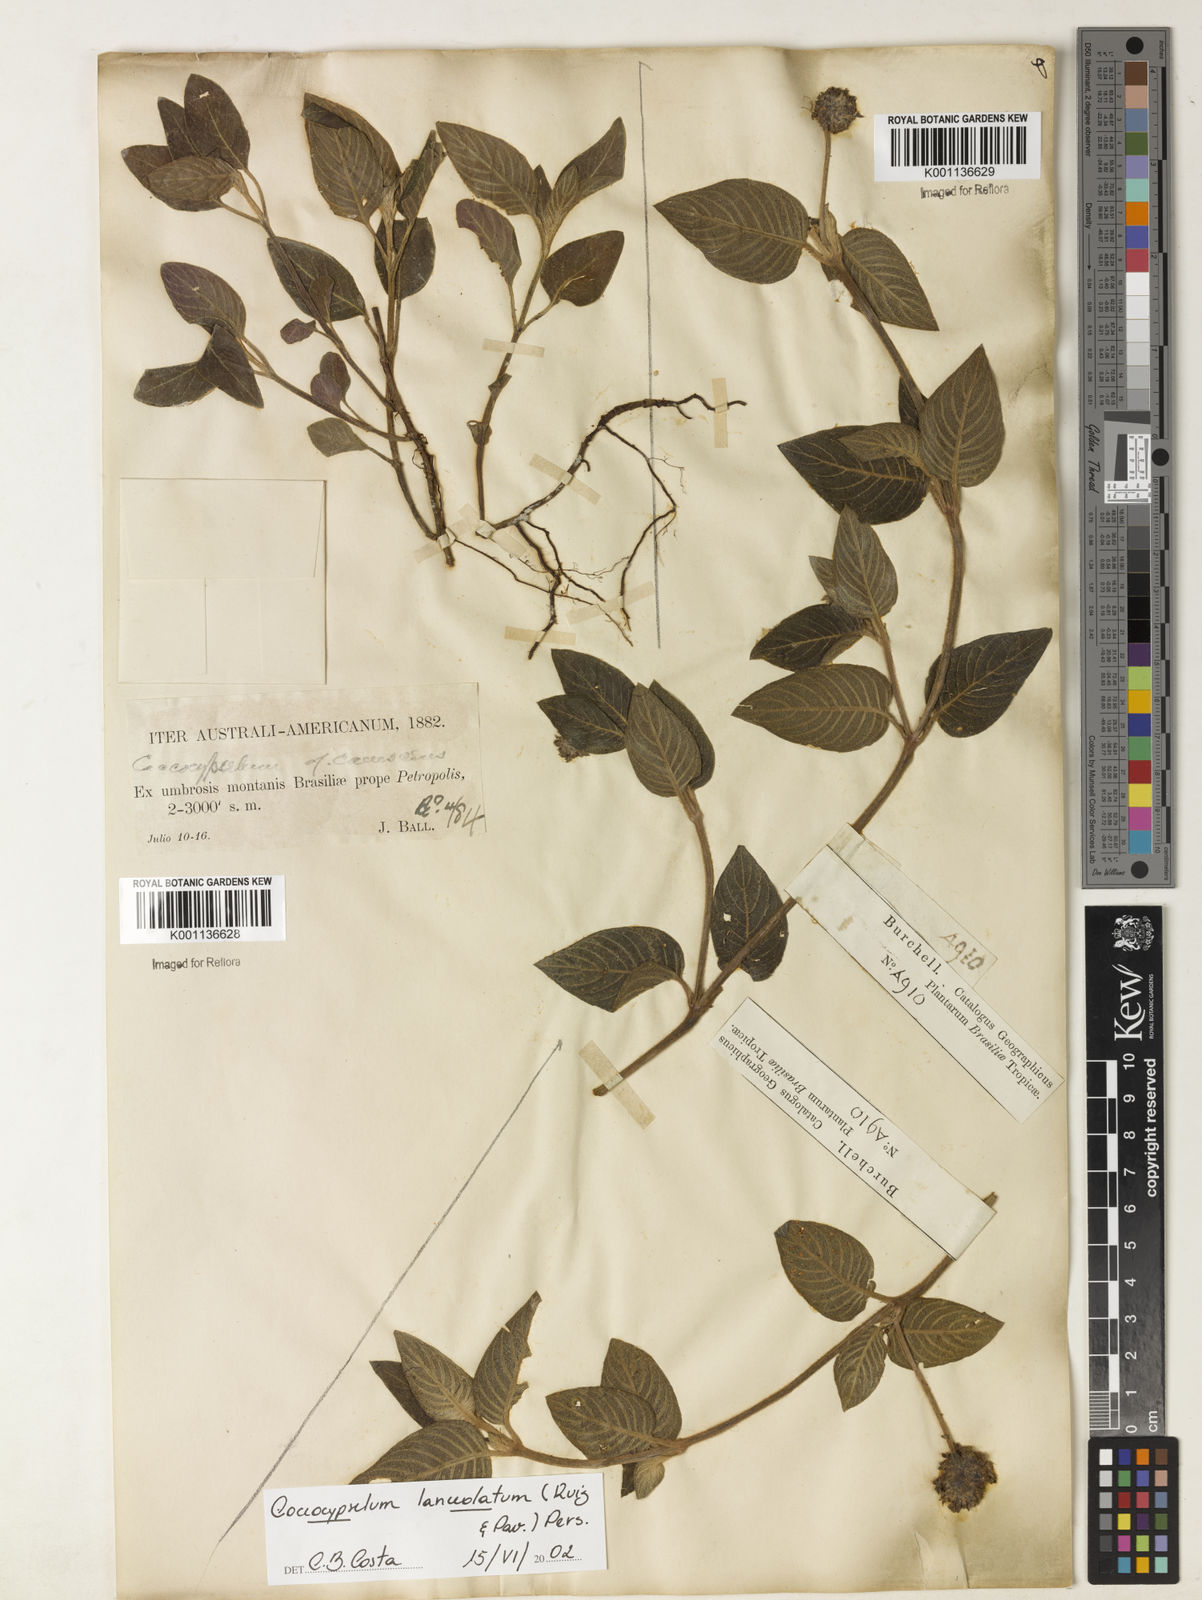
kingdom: Plantae
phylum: Tracheophyta
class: Magnoliopsida
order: Gentianales
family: Rubiaceae
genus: Coccocypselum
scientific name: Coccocypselum lanceolatum
